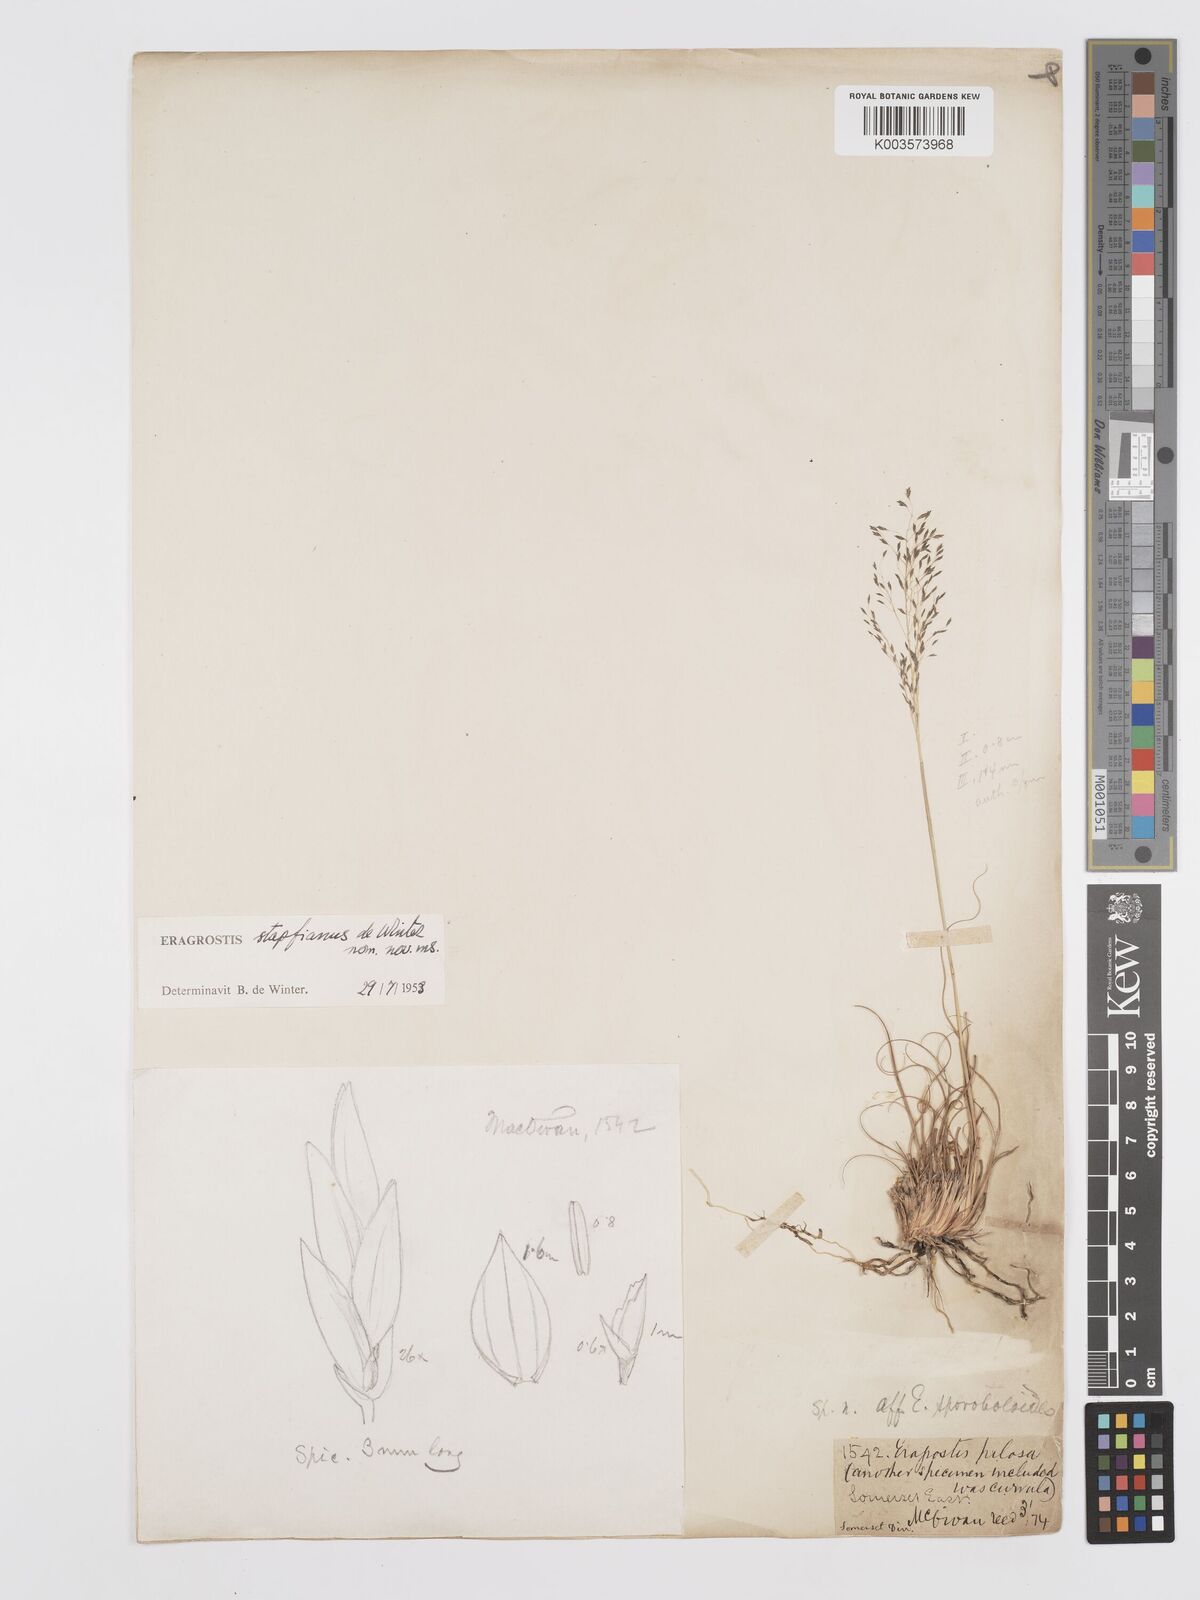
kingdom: Plantae
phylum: Tracheophyta
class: Liliopsida
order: Poales
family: Poaceae
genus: Eragrostis
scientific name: Eragrostis stapfii
